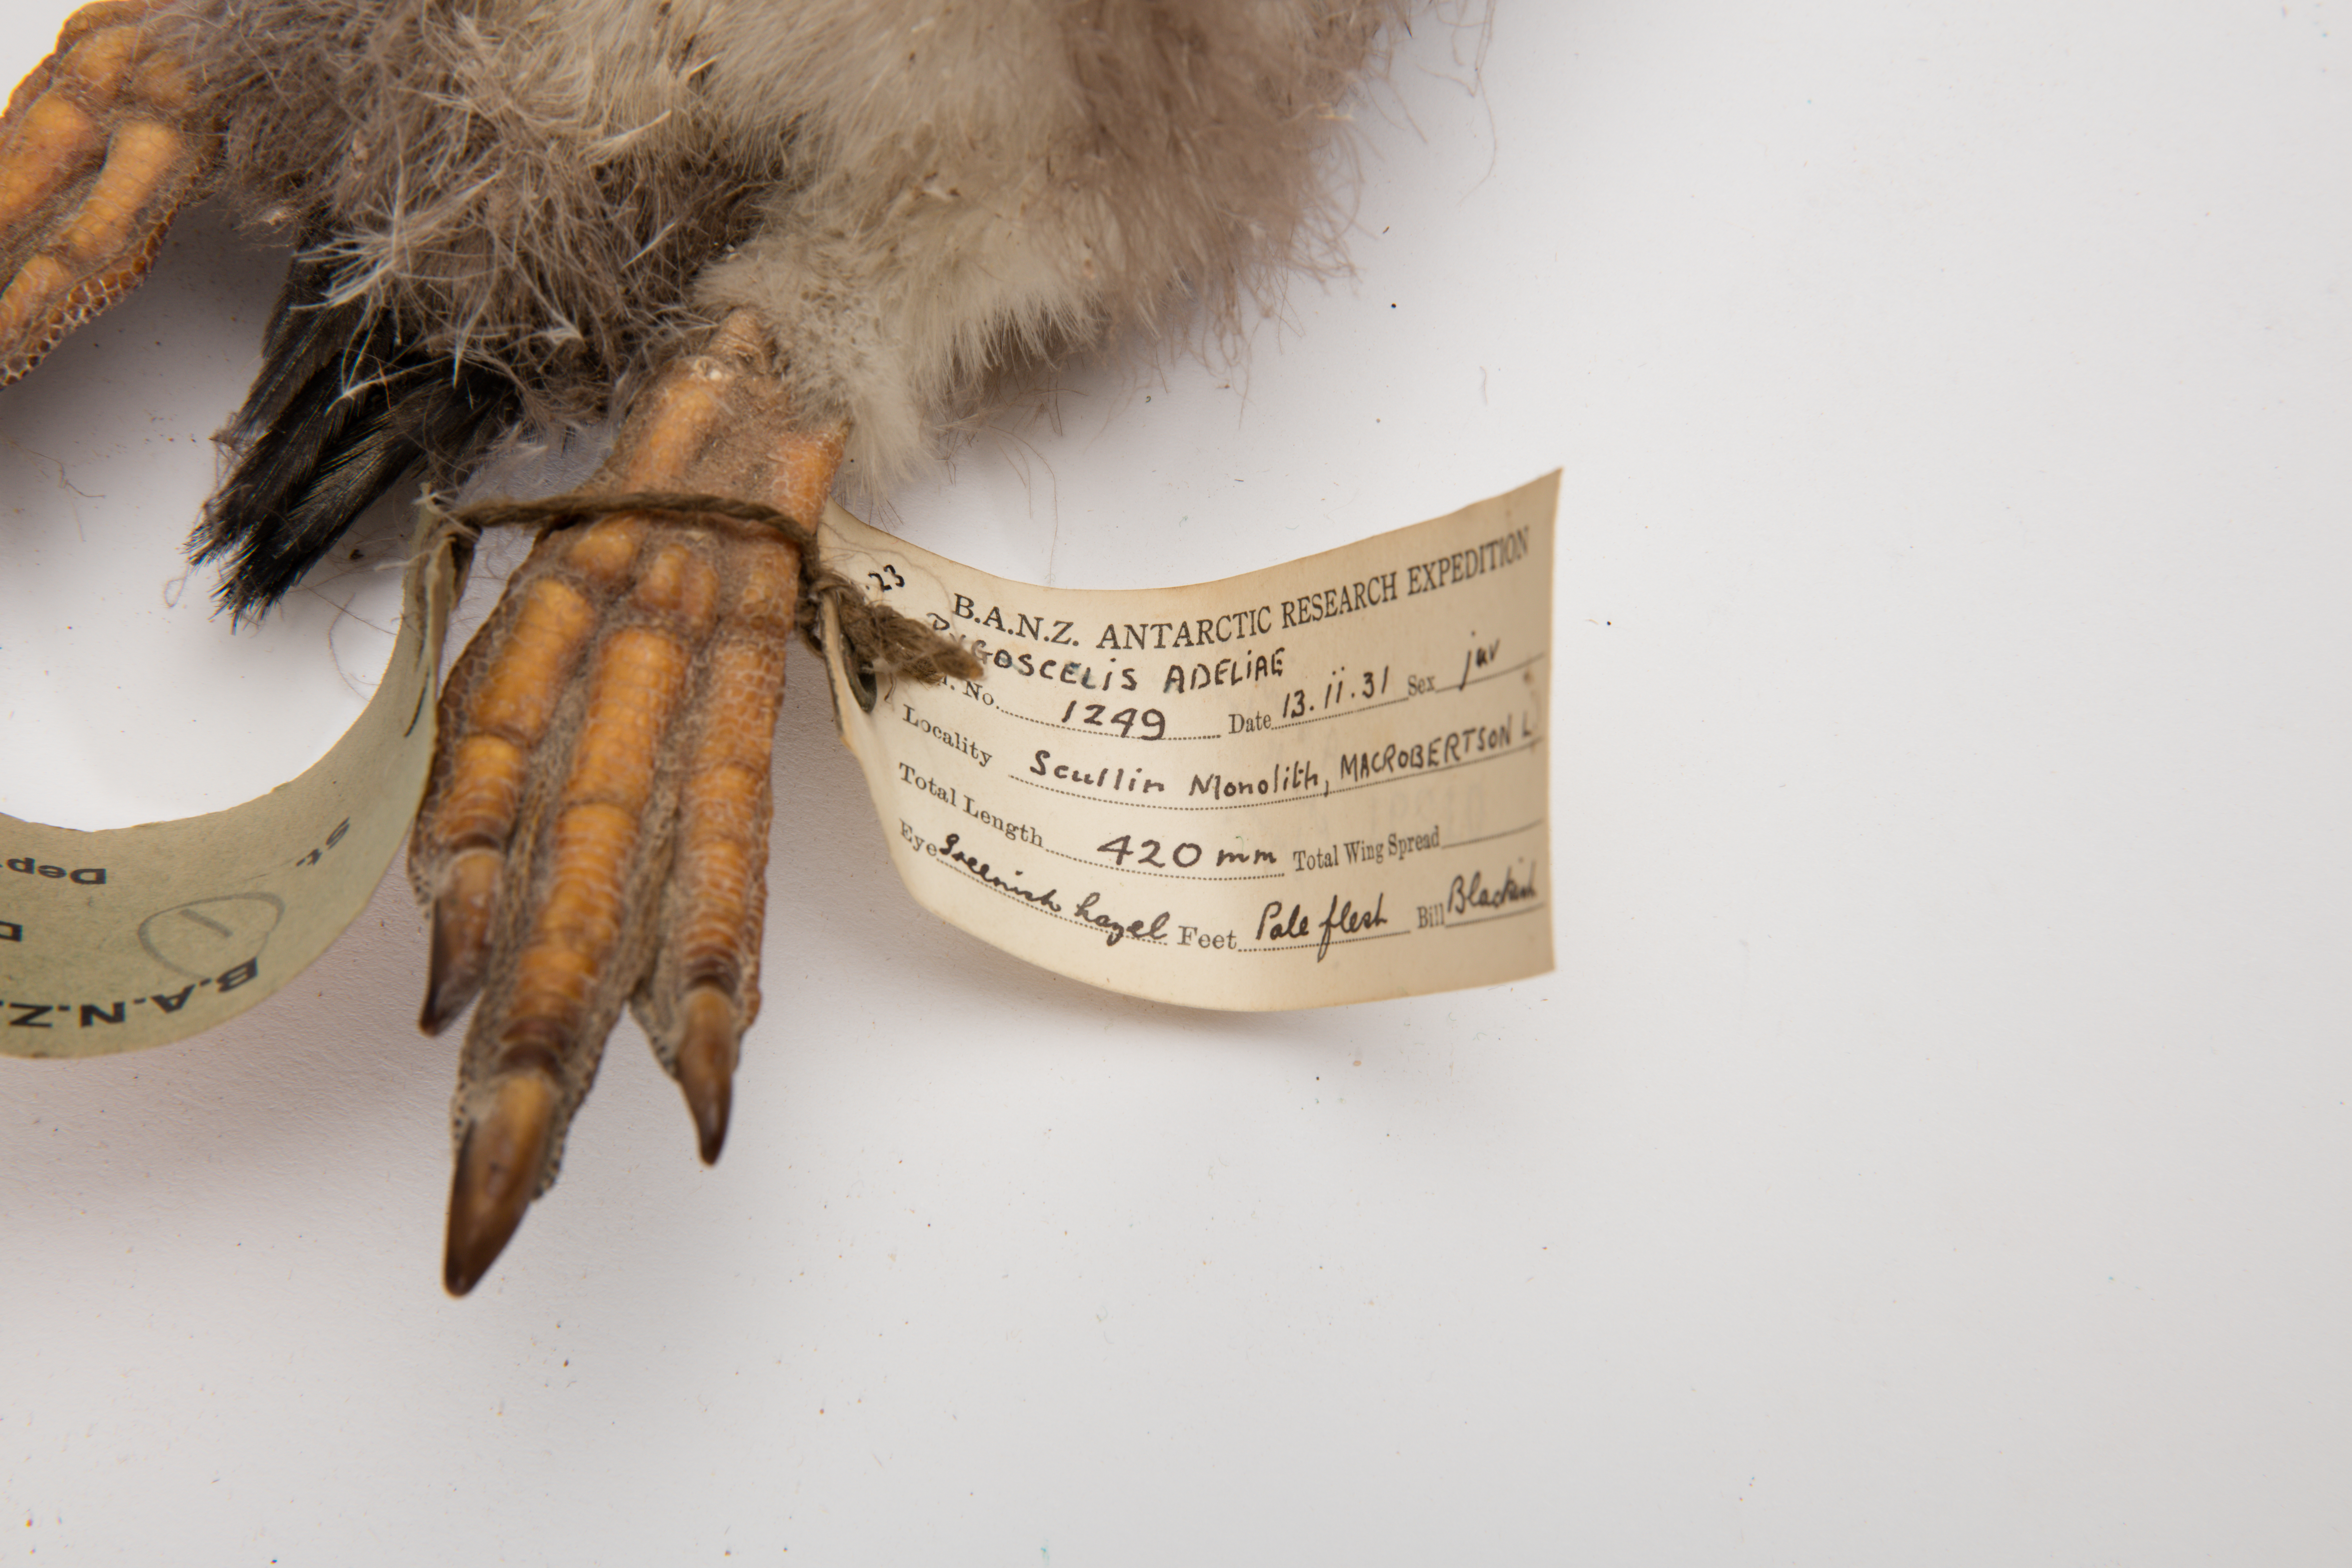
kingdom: Animalia
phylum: Chordata
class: Aves
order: Sphenisciformes
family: Spheniscidae
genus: Pygoscelis
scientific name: Pygoscelis adeliae
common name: Adelie penguin
